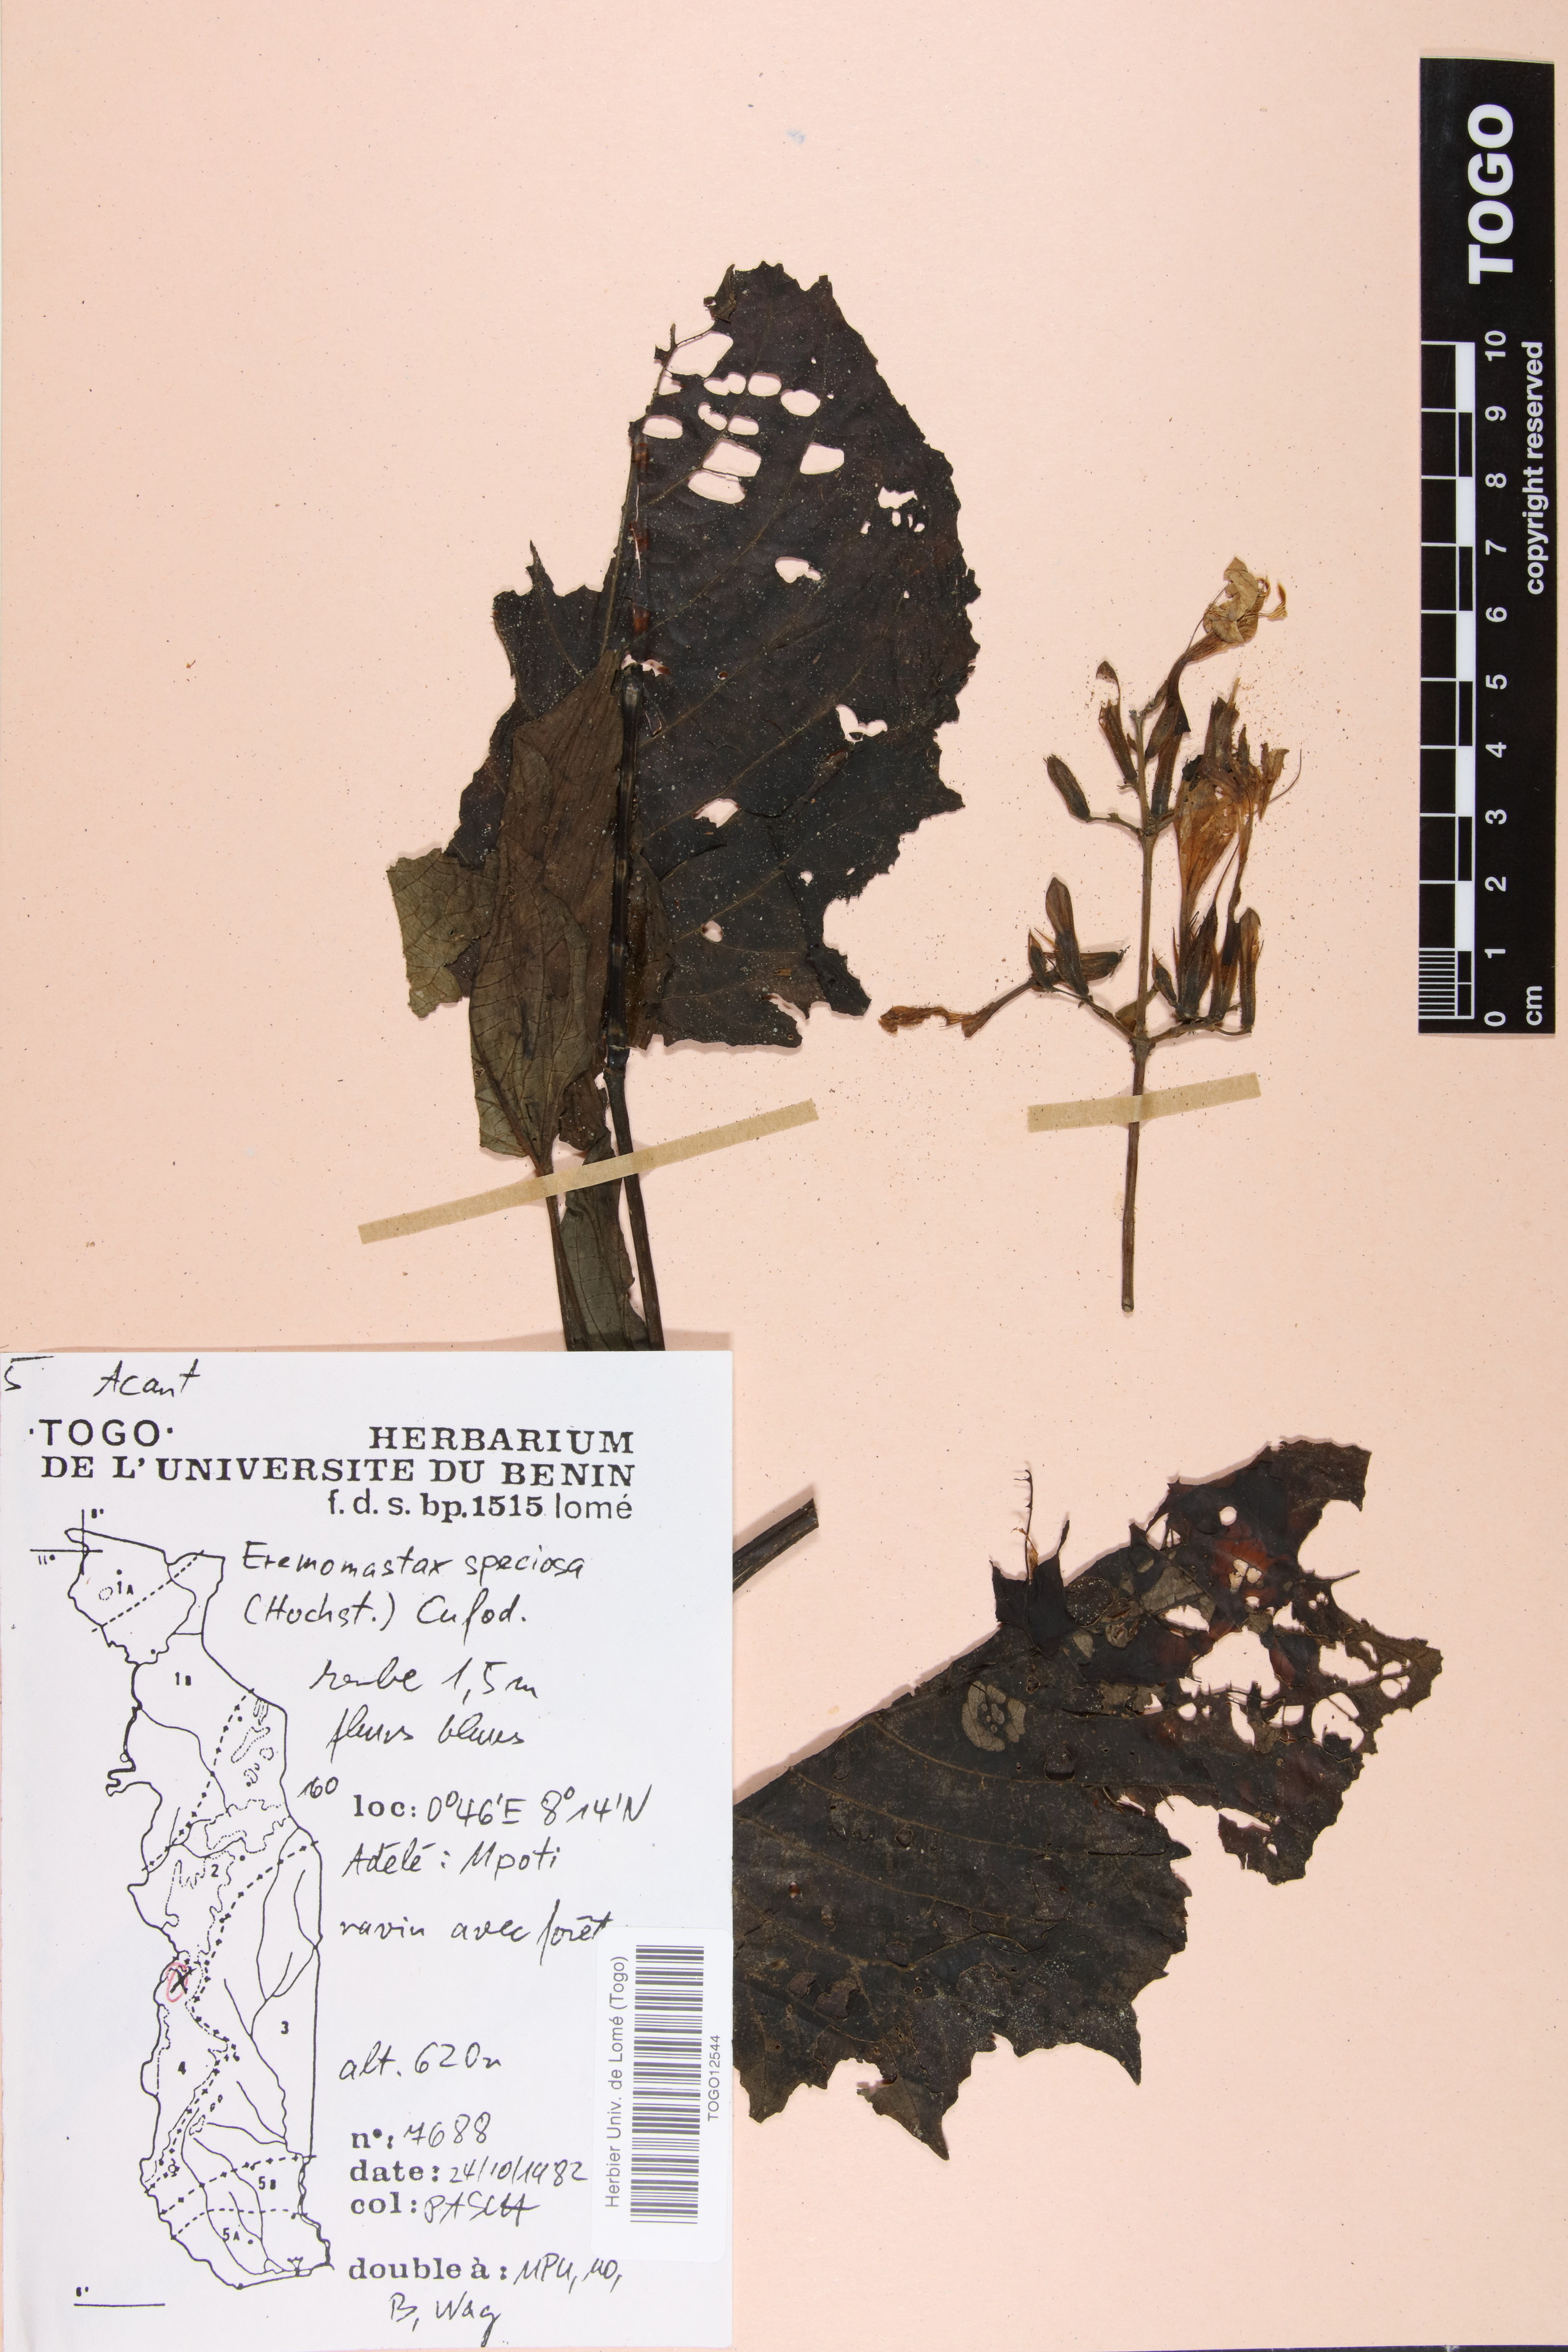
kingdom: Plantae
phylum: Tracheophyta
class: Magnoliopsida
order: Lamiales
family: Acanthaceae
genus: Eremomastax
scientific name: Eremomastax speciosa
